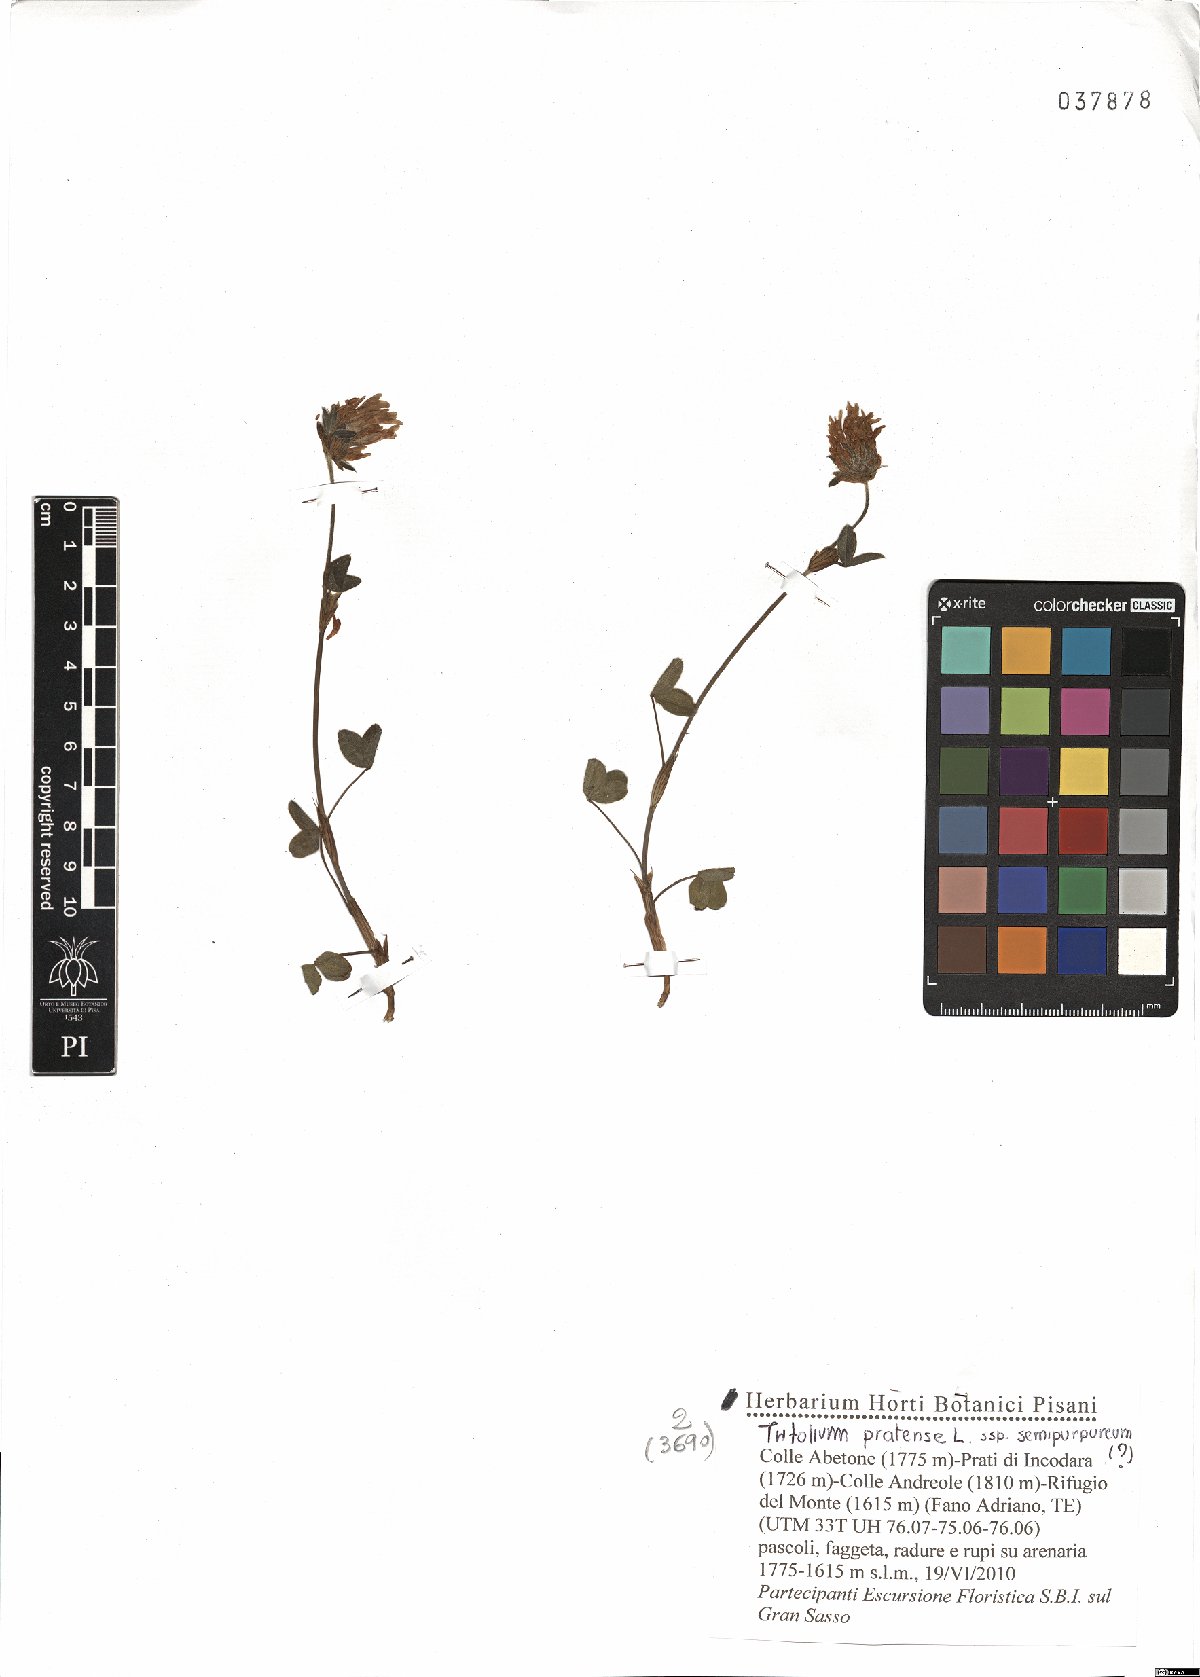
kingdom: Plantae
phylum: Tracheophyta
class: Magnoliopsida
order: Fabales
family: Fabaceae
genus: Trifolium
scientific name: Trifolium pratense
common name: Red clover
